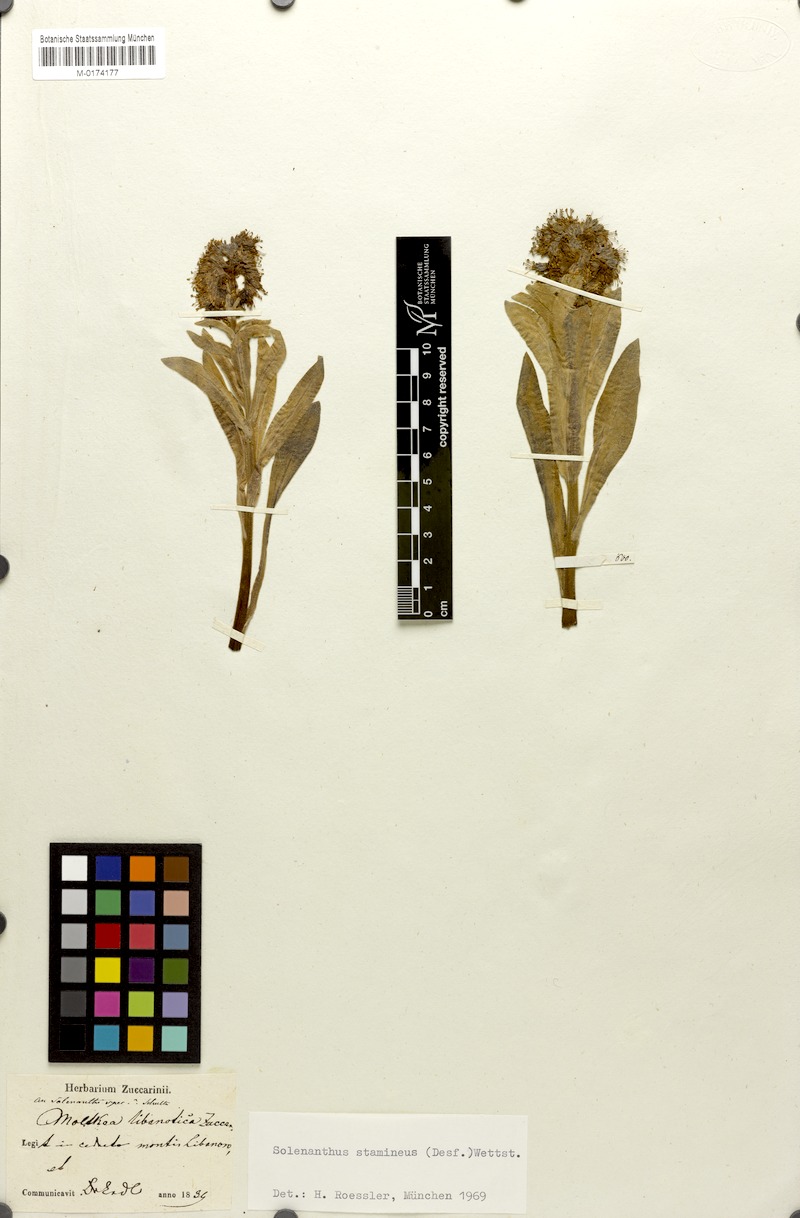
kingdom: Plantae
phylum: Tracheophyta
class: Magnoliopsida
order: Boraginales
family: Boraginaceae
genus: Solenanthus
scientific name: Solenanthus stamineus
